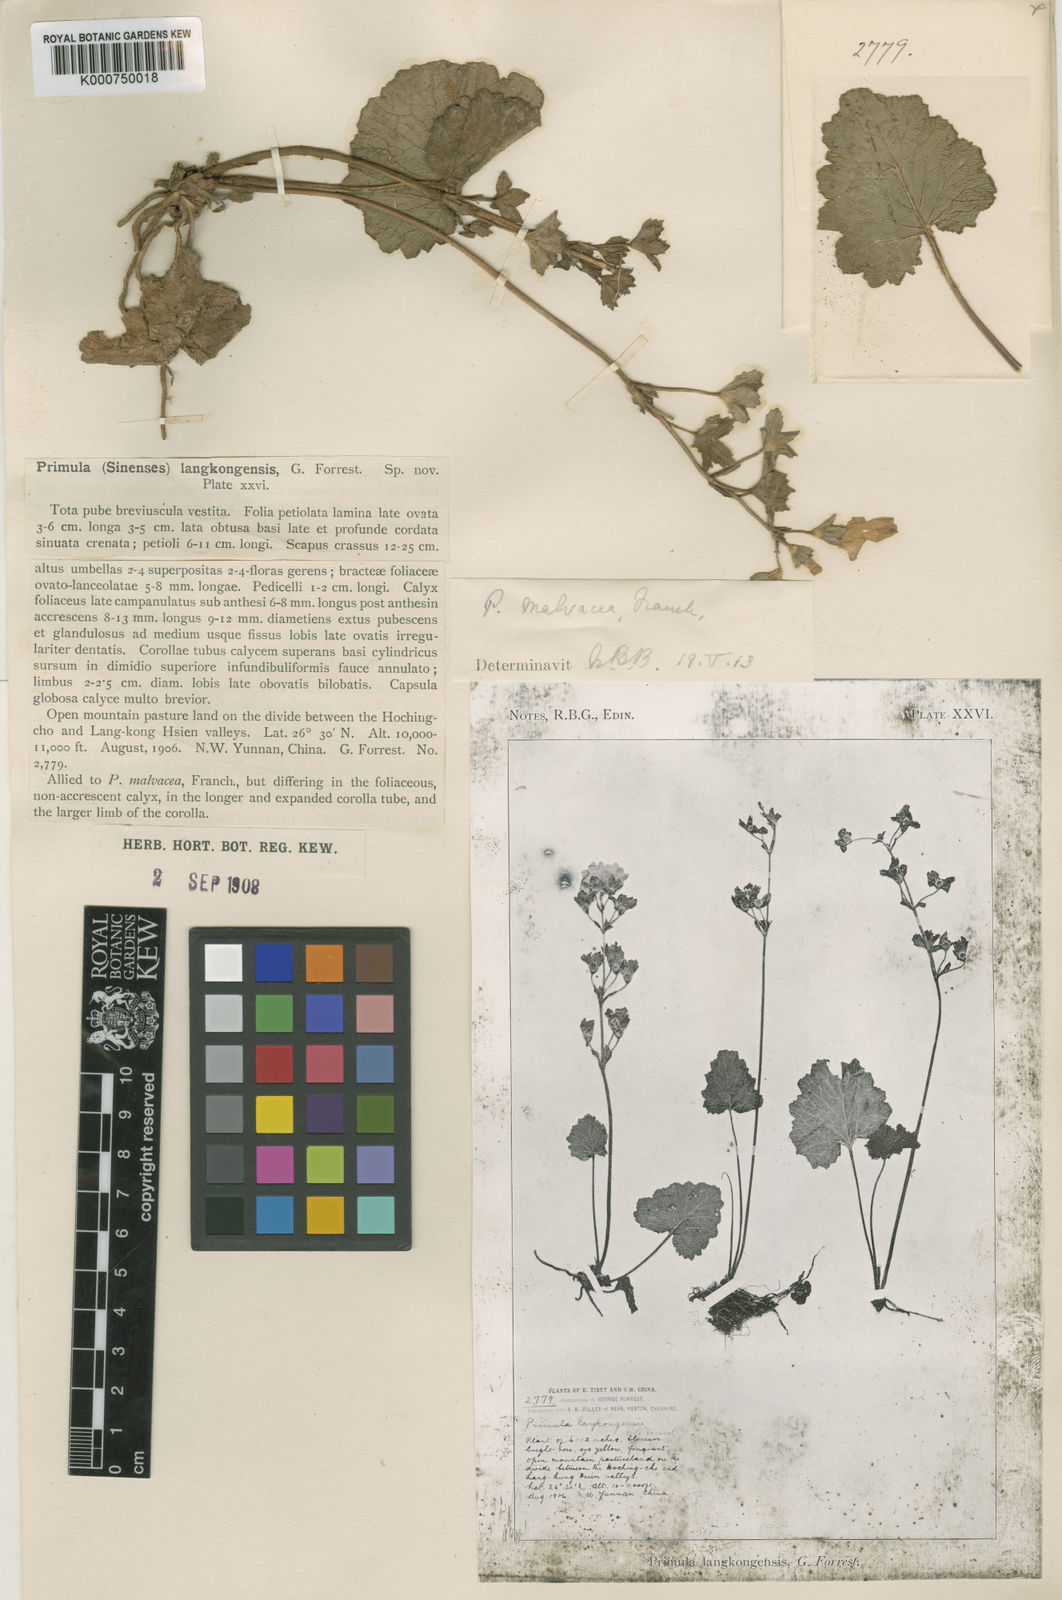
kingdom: Plantae
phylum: Tracheophyta
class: Magnoliopsida
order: Ericales
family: Primulaceae
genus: Primula
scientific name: Primula malvacea
